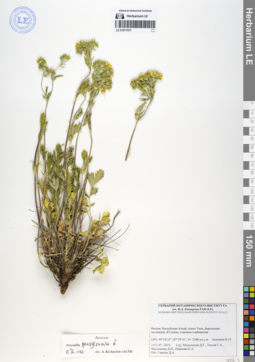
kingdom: Plantae
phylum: Tracheophyta
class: Magnoliopsida
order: Rosales
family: Rosaceae
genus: Potentilla
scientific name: Potentilla pensylvanica
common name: Pennsylvania cinquefoil
